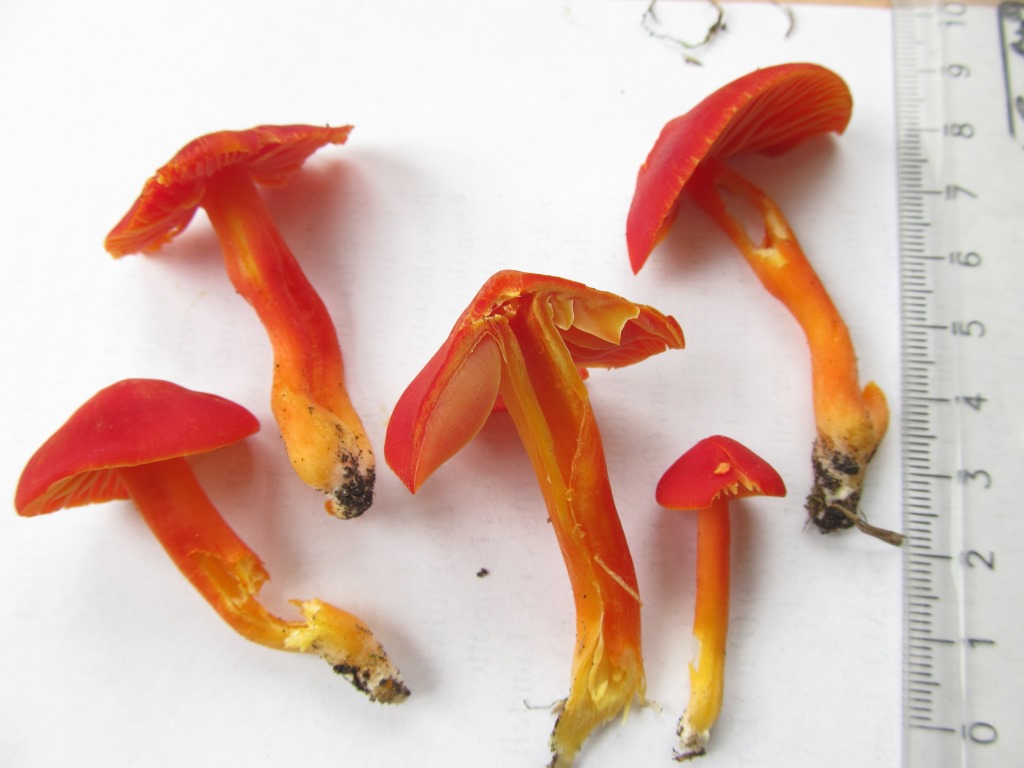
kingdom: Fungi
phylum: Basidiomycota
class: Agaricomycetes
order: Agaricales
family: Hygrophoraceae
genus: Hygrocybe
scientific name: Hygrocybe splendidissima
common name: knaldrød vokshat
